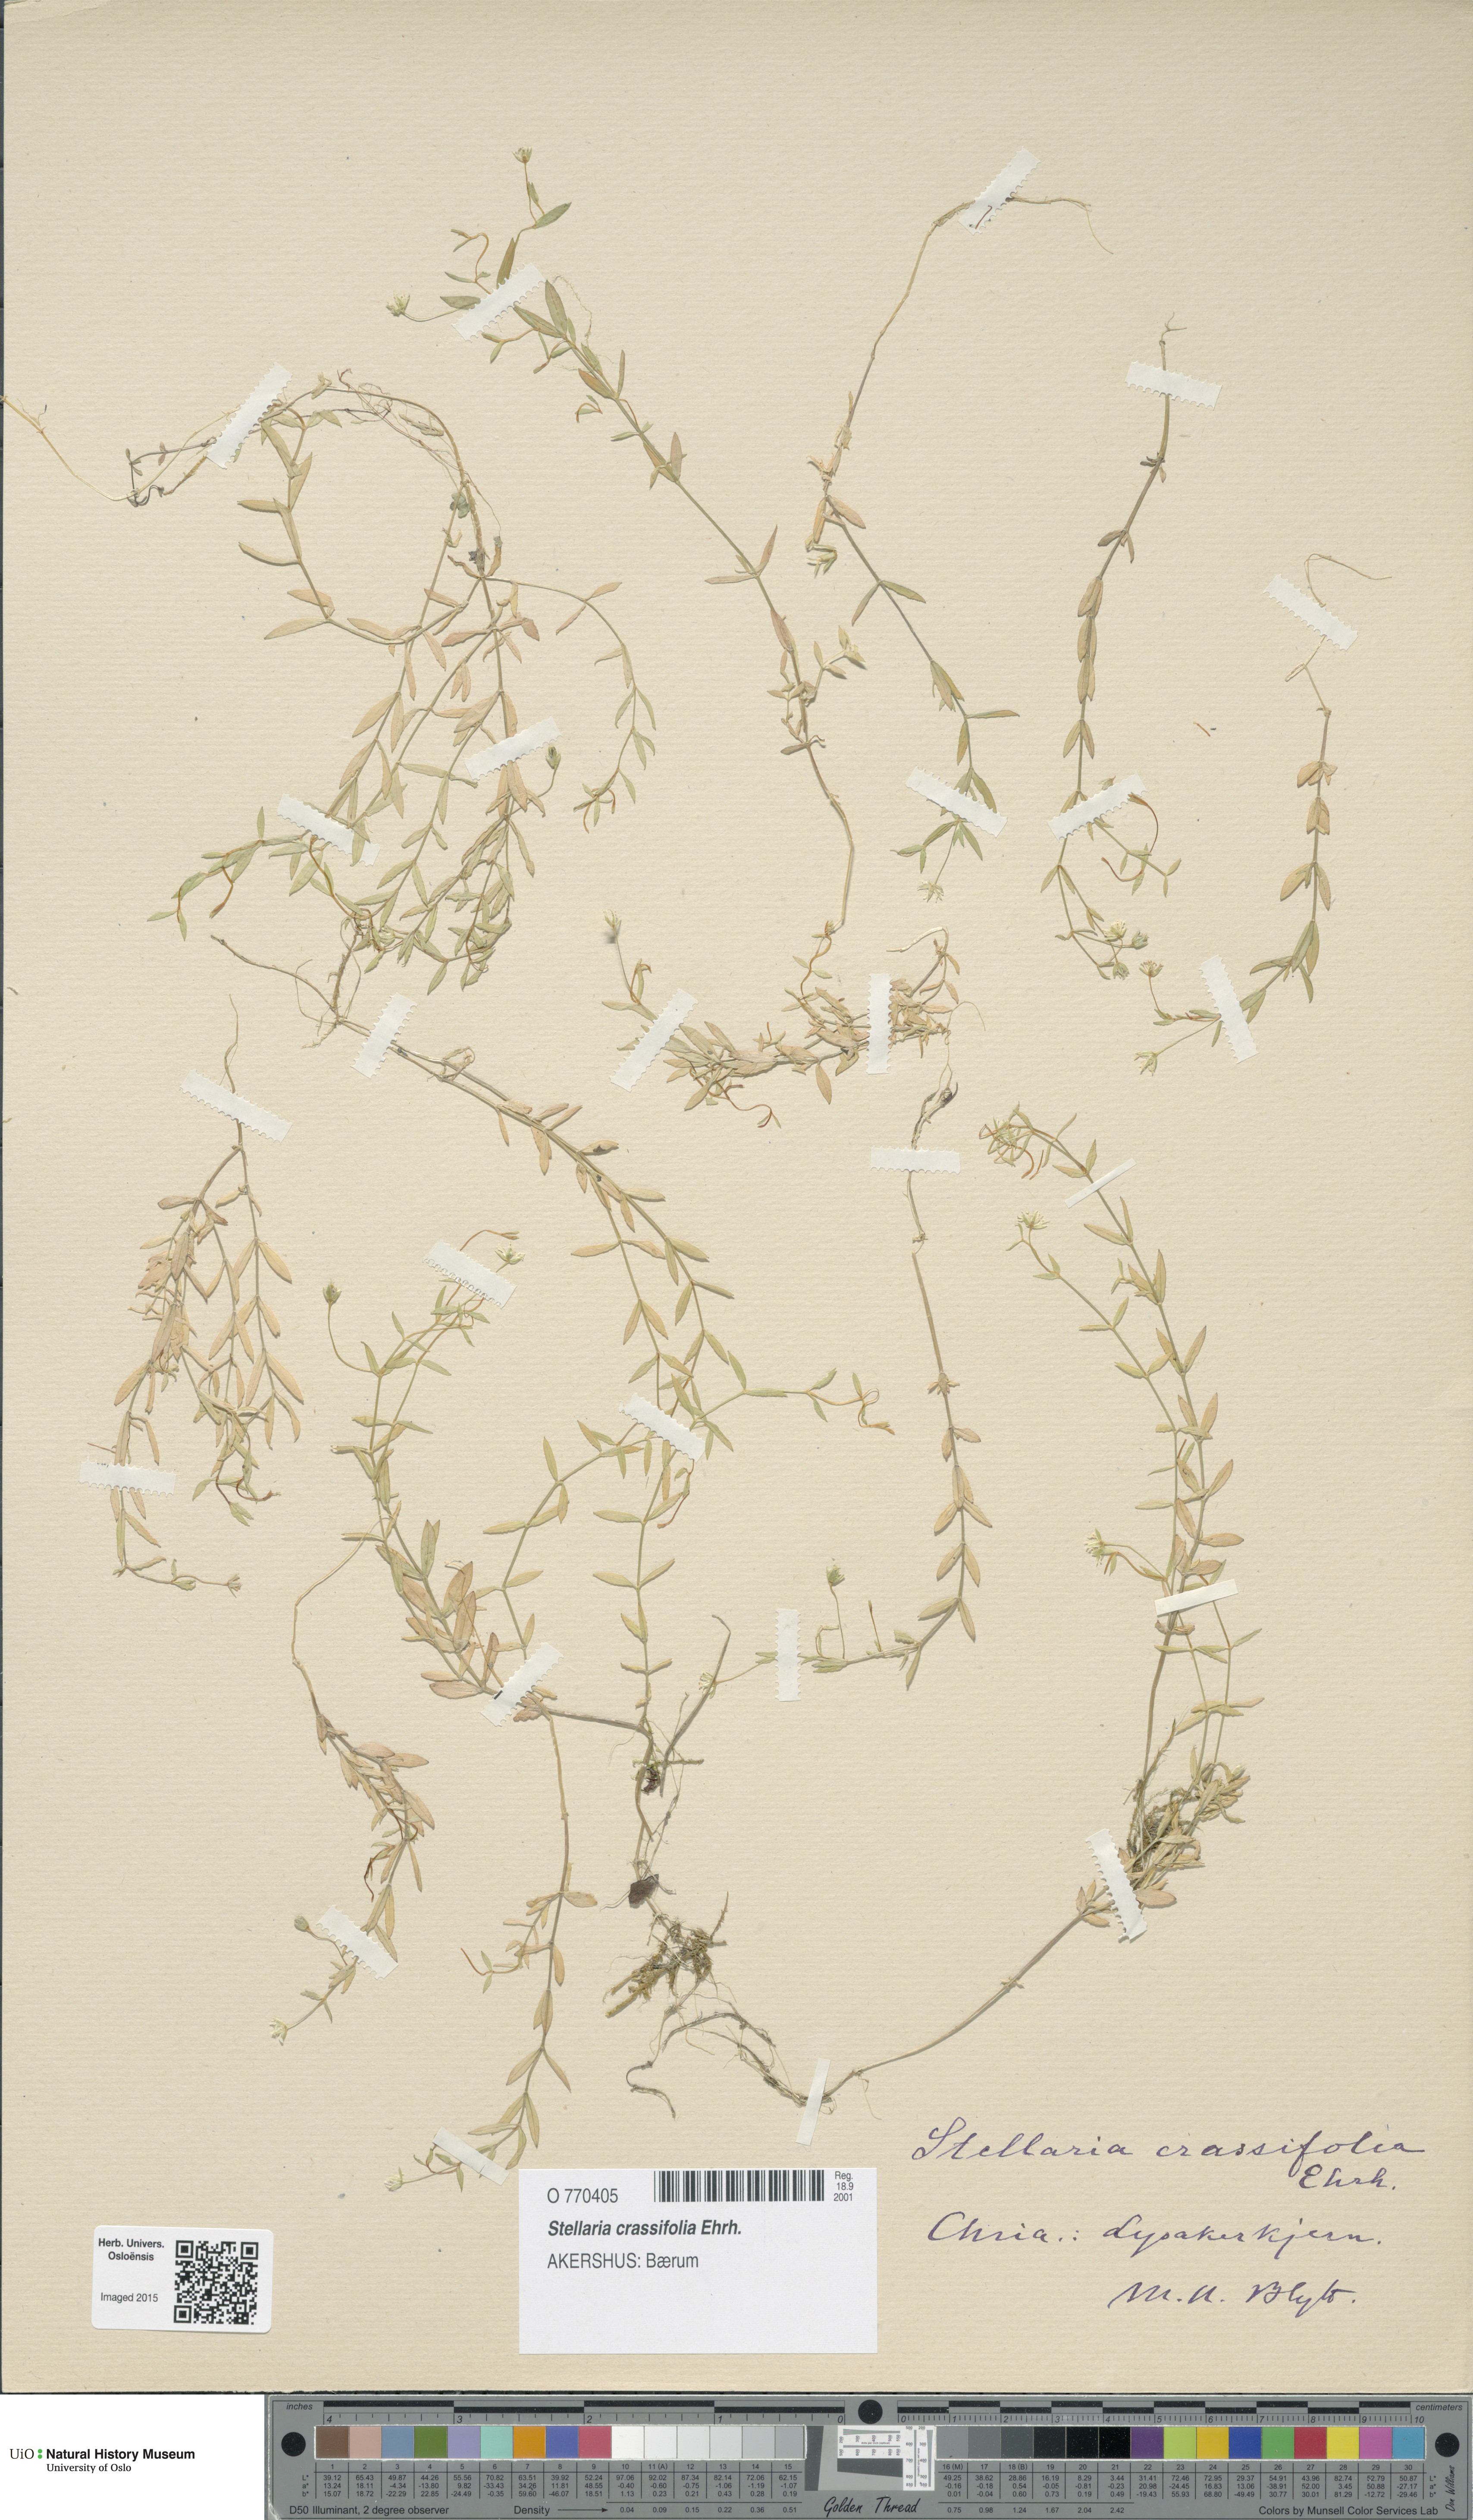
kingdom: Plantae
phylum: Tracheophyta
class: Magnoliopsida
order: Caryophyllales
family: Caryophyllaceae
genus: Stellaria
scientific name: Stellaria crassifolia
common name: Fleshy starwort
